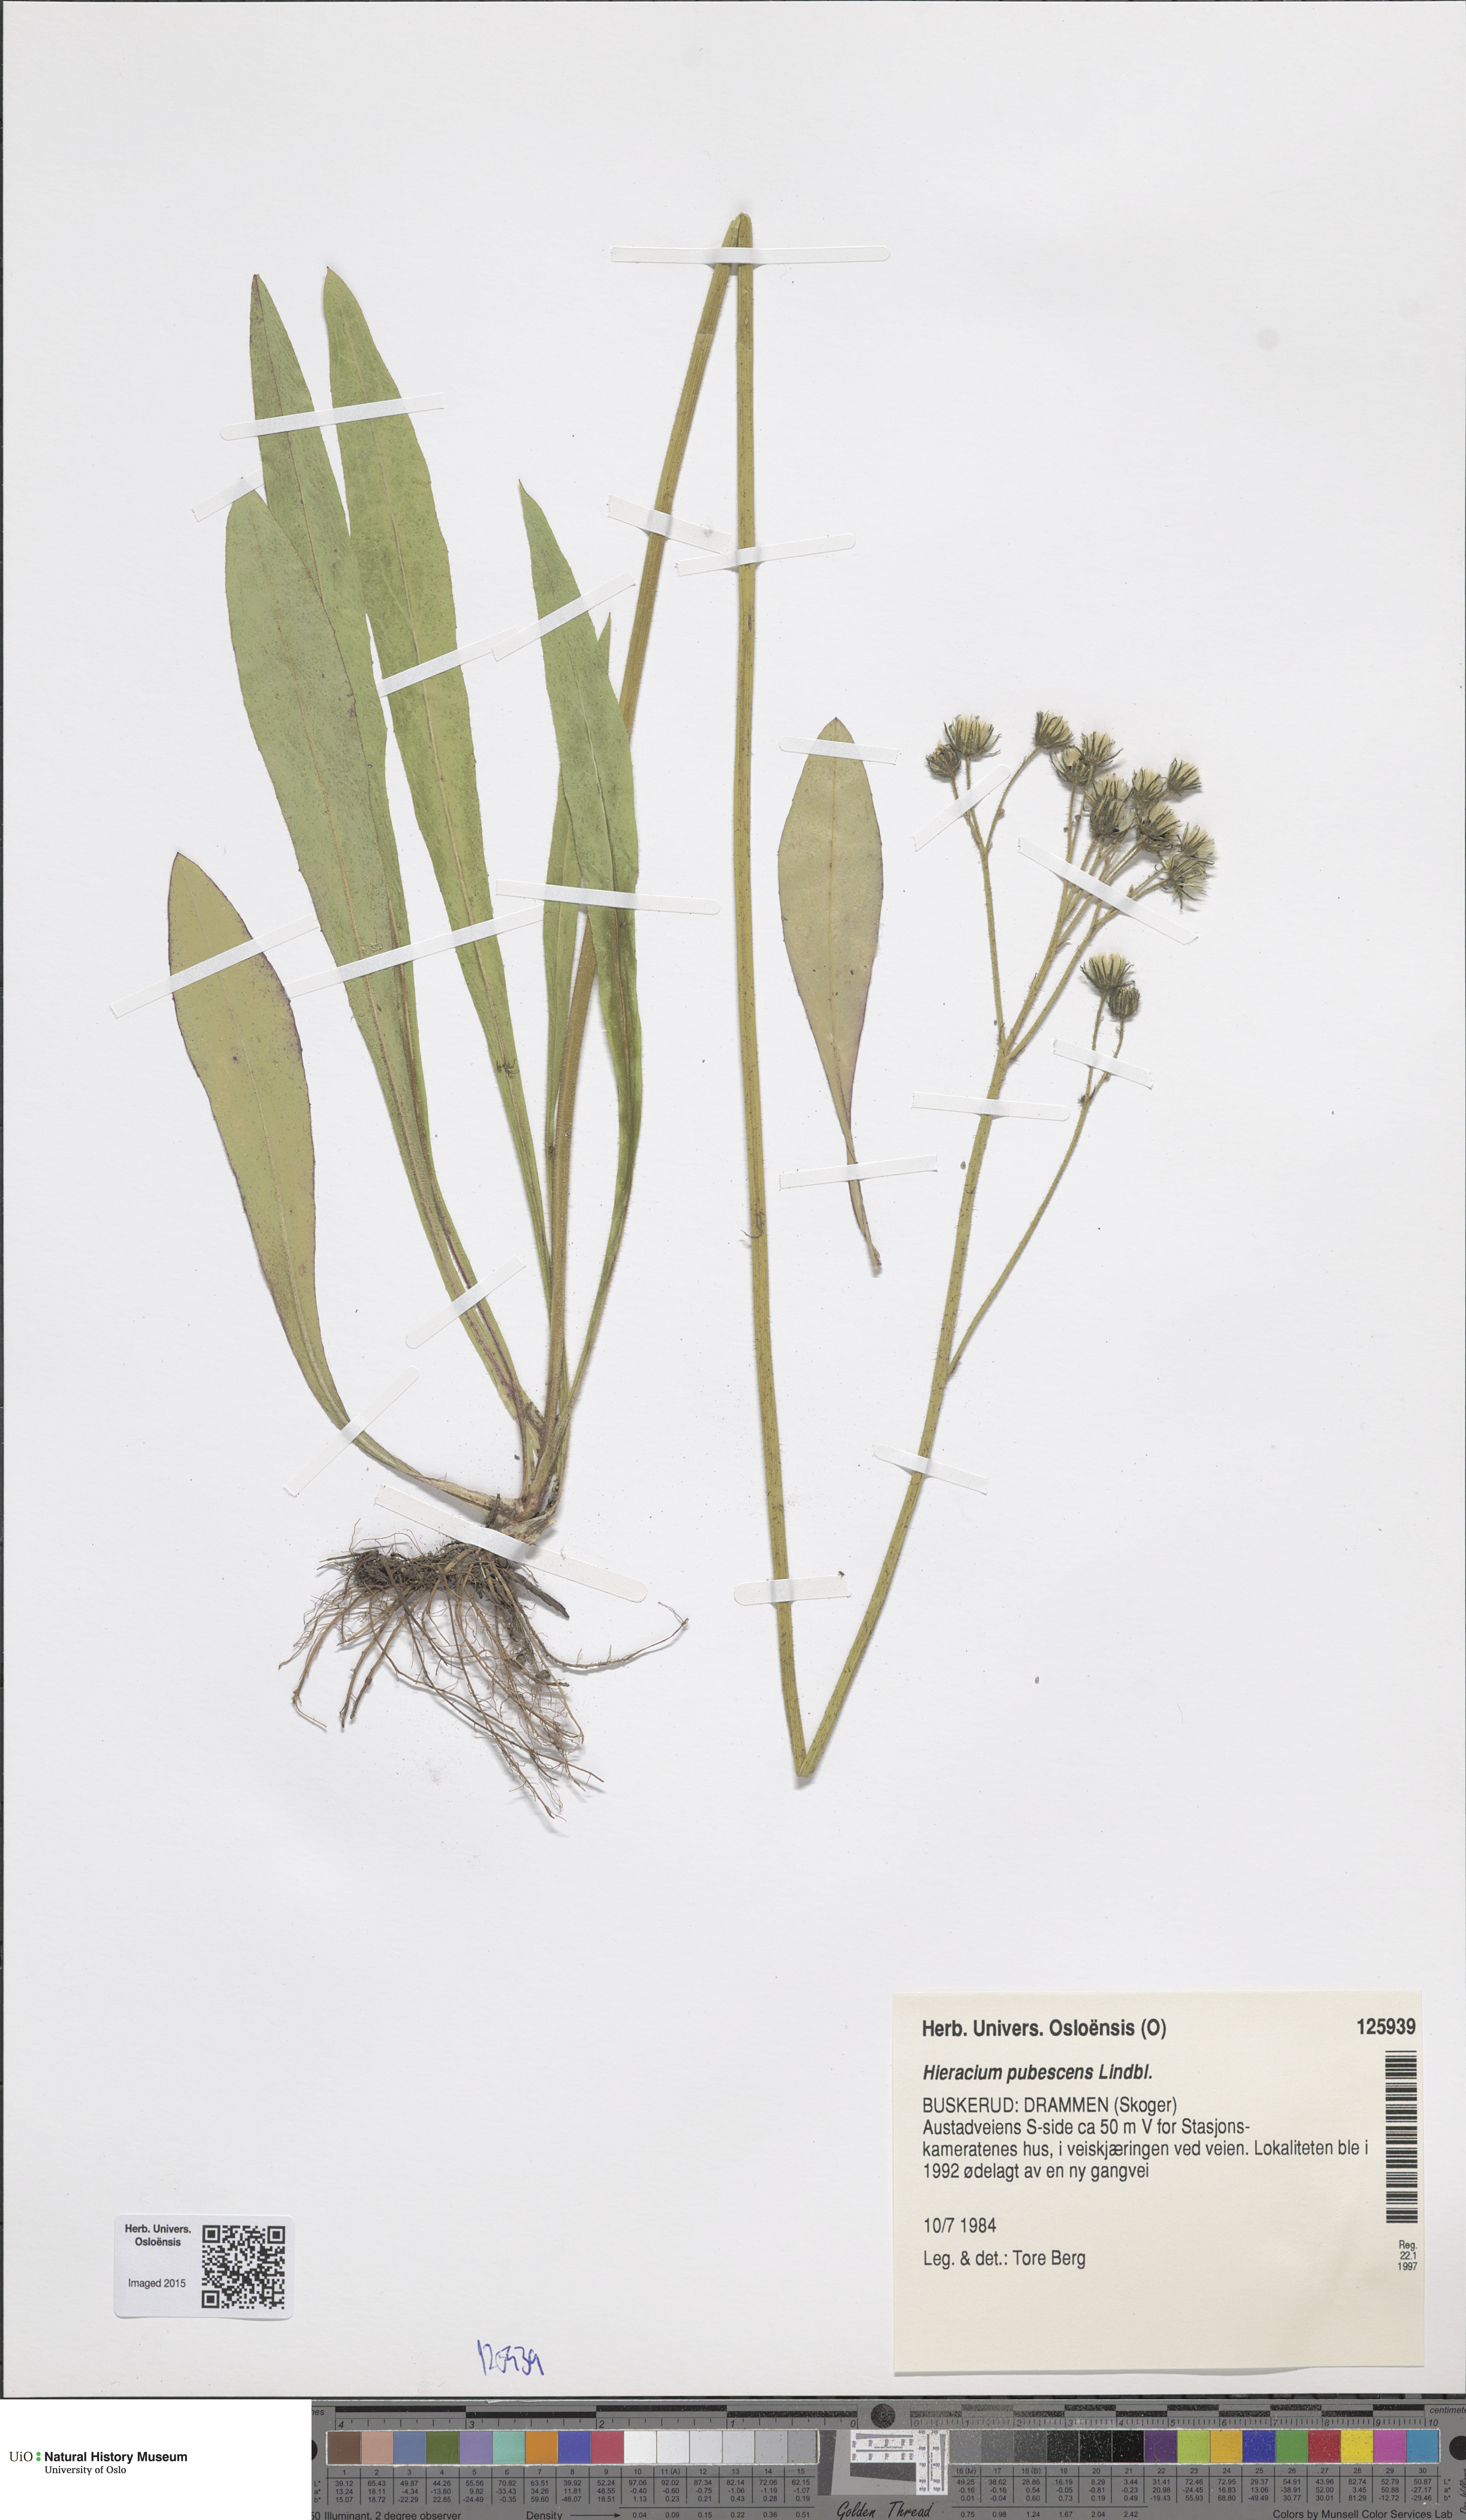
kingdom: Plantae
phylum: Tracheophyta
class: Magnoliopsida
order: Asterales
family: Asteraceae
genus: Pilosella
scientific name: Pilosella cymosa
